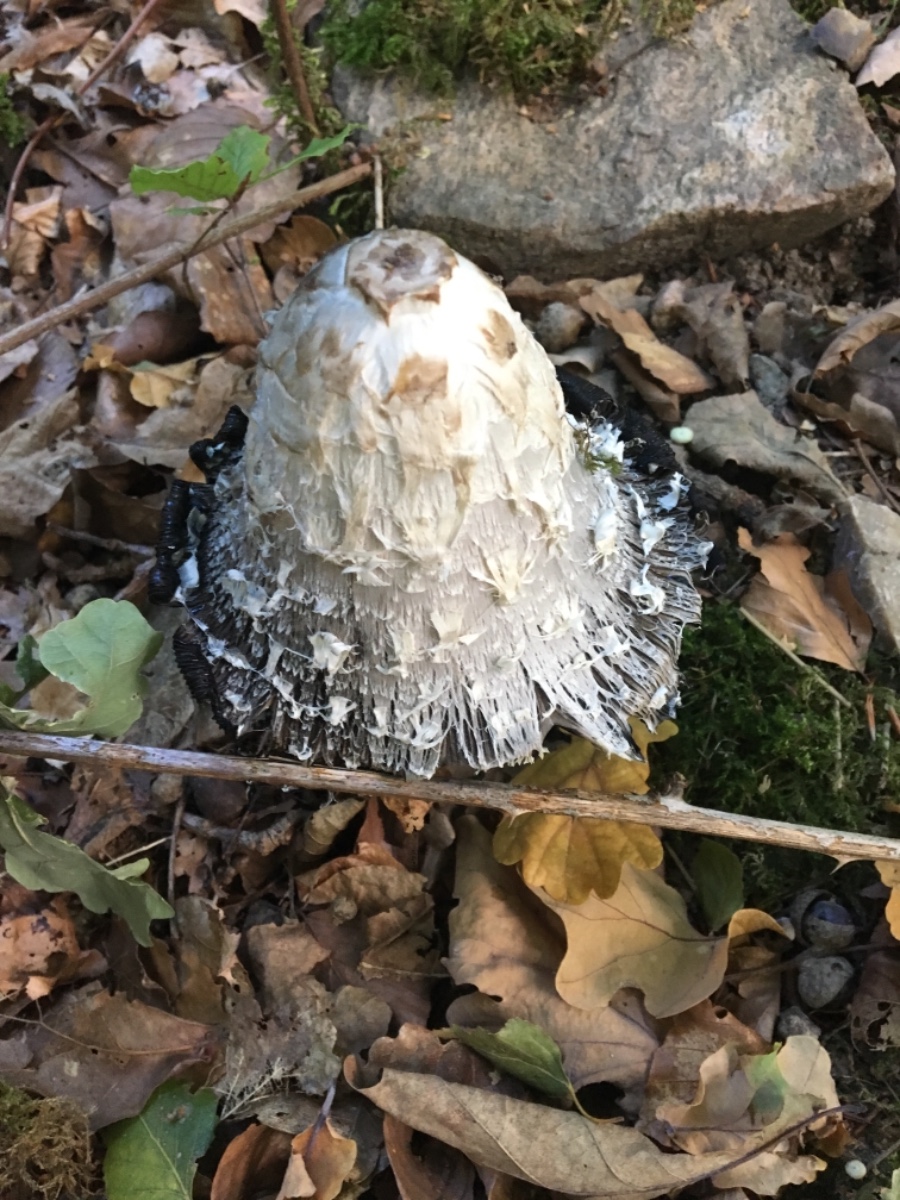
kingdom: Fungi
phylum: Basidiomycota
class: Agaricomycetes
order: Agaricales
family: Agaricaceae
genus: Coprinus
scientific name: Coprinus comatus
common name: stor parykhat
